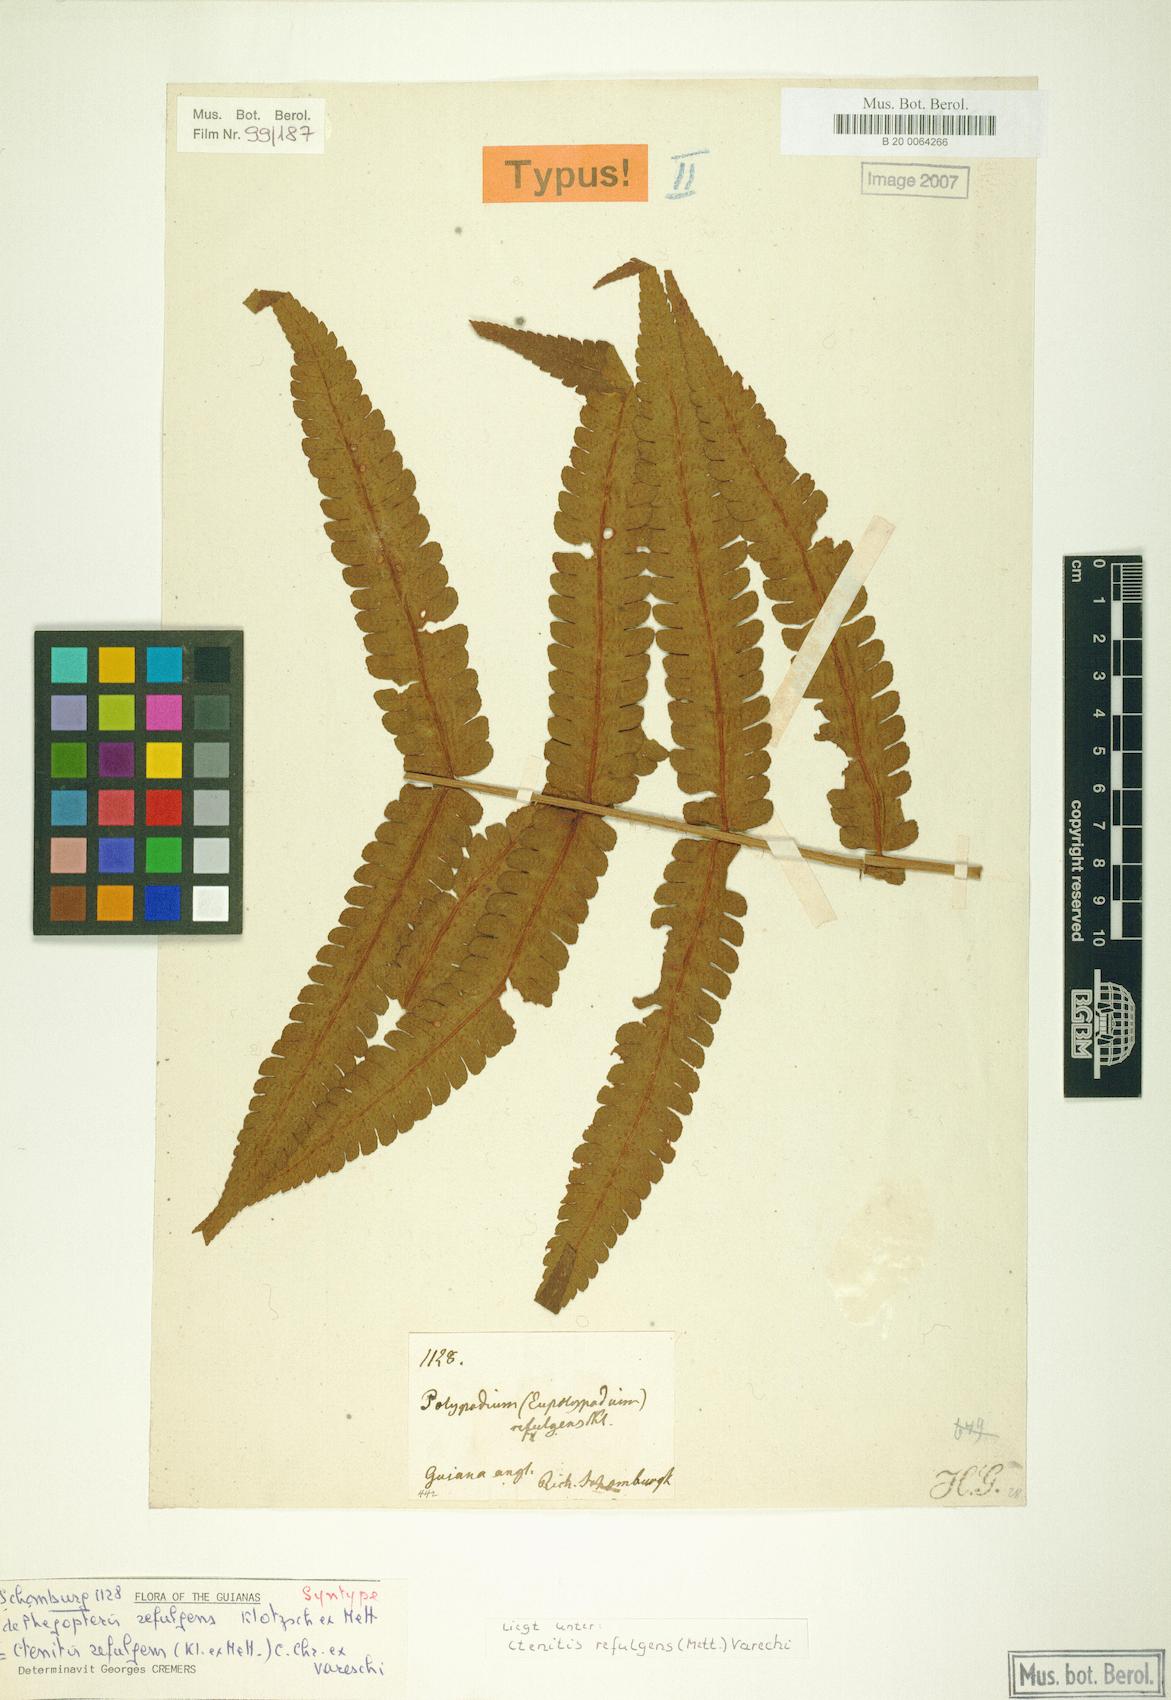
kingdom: Plantae
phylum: Tracheophyta
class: Polypodiopsida
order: Polypodiales
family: Dryopteridaceae
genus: Ctenitis
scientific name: Ctenitis refulgens
